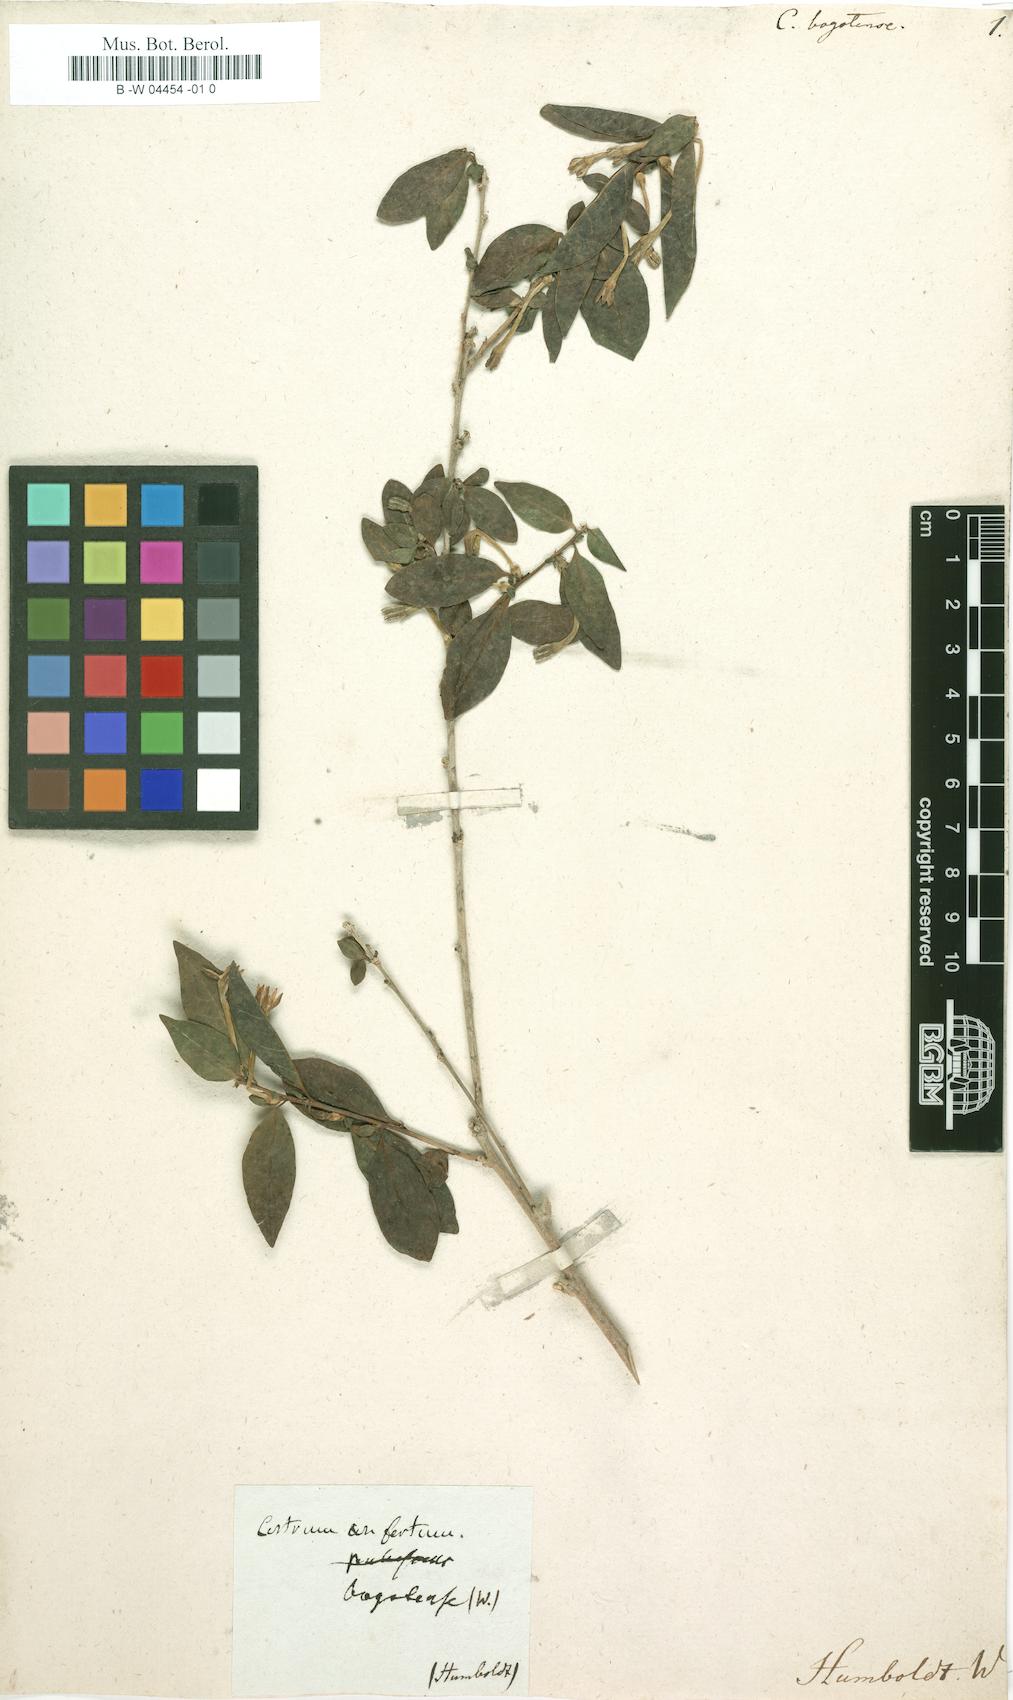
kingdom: Plantae
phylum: Tracheophyta
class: Magnoliopsida
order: Solanales
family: Solanaceae
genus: Cestrum
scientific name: Cestrum mariquitense
